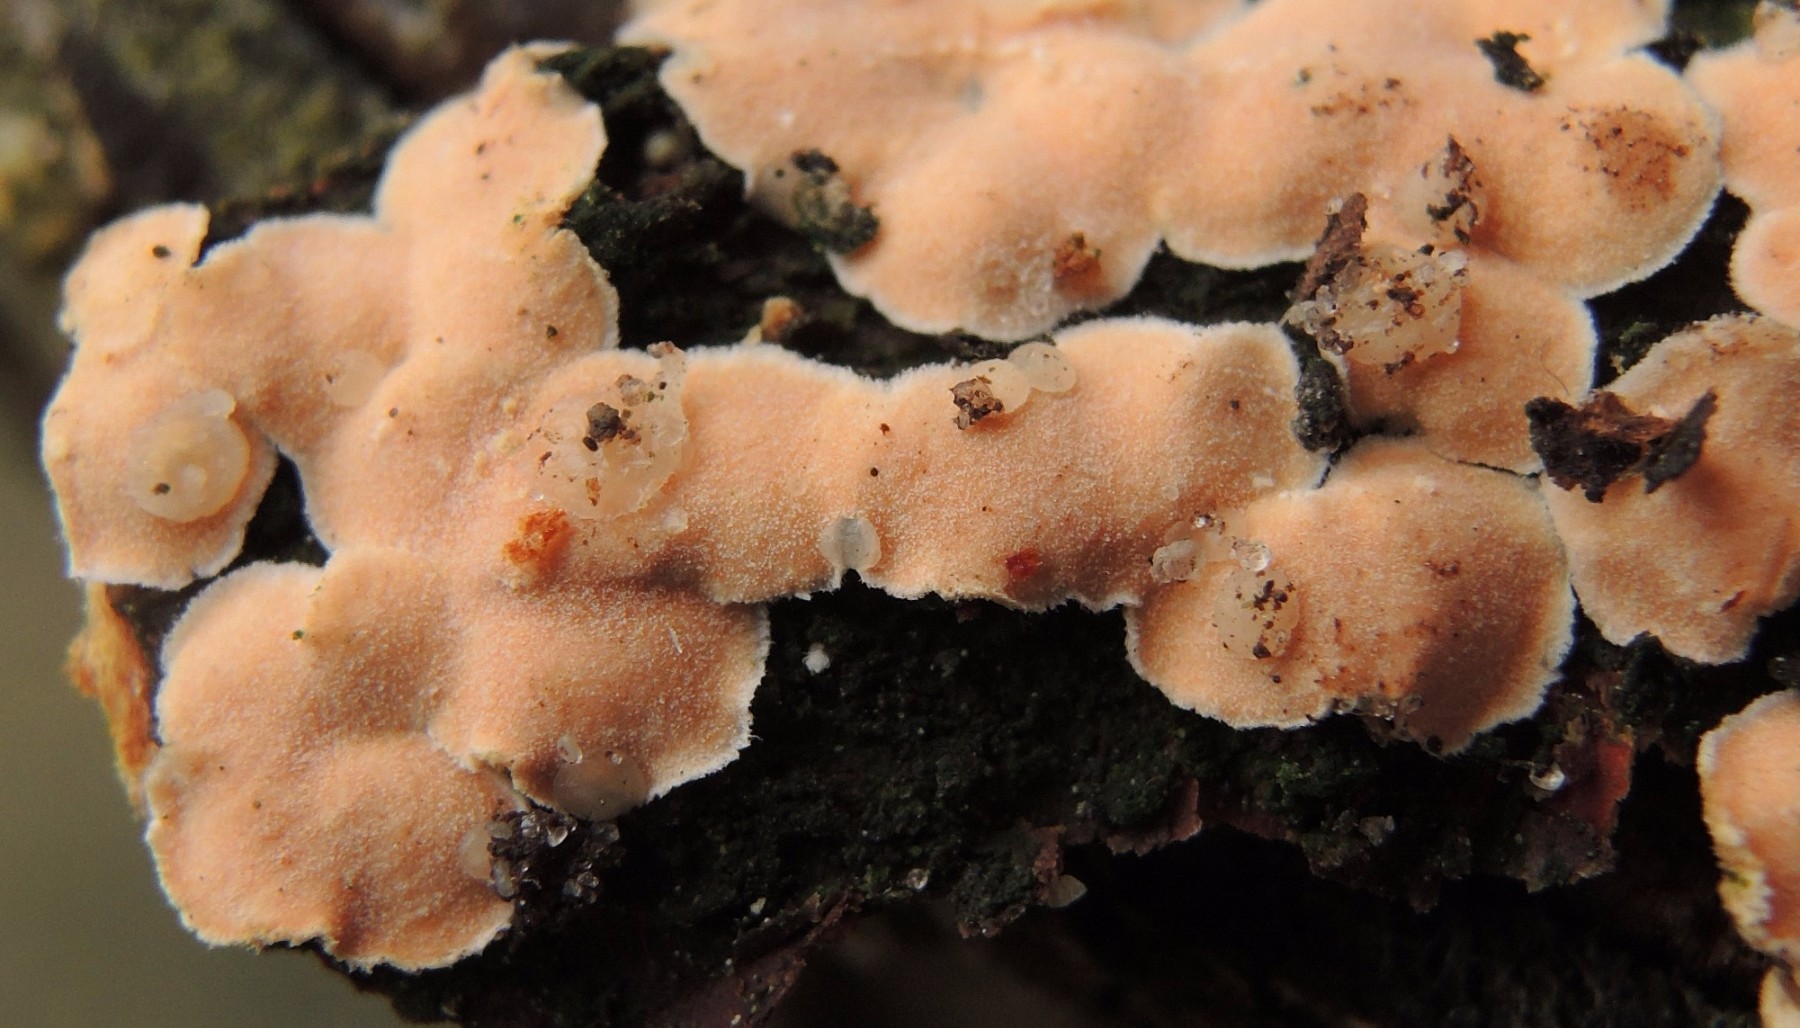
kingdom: Fungi
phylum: Basidiomycota
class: Tremellomycetes
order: Tremellales
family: Tremellaceae
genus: Phaeotremella
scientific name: Phaeotremella simplex
